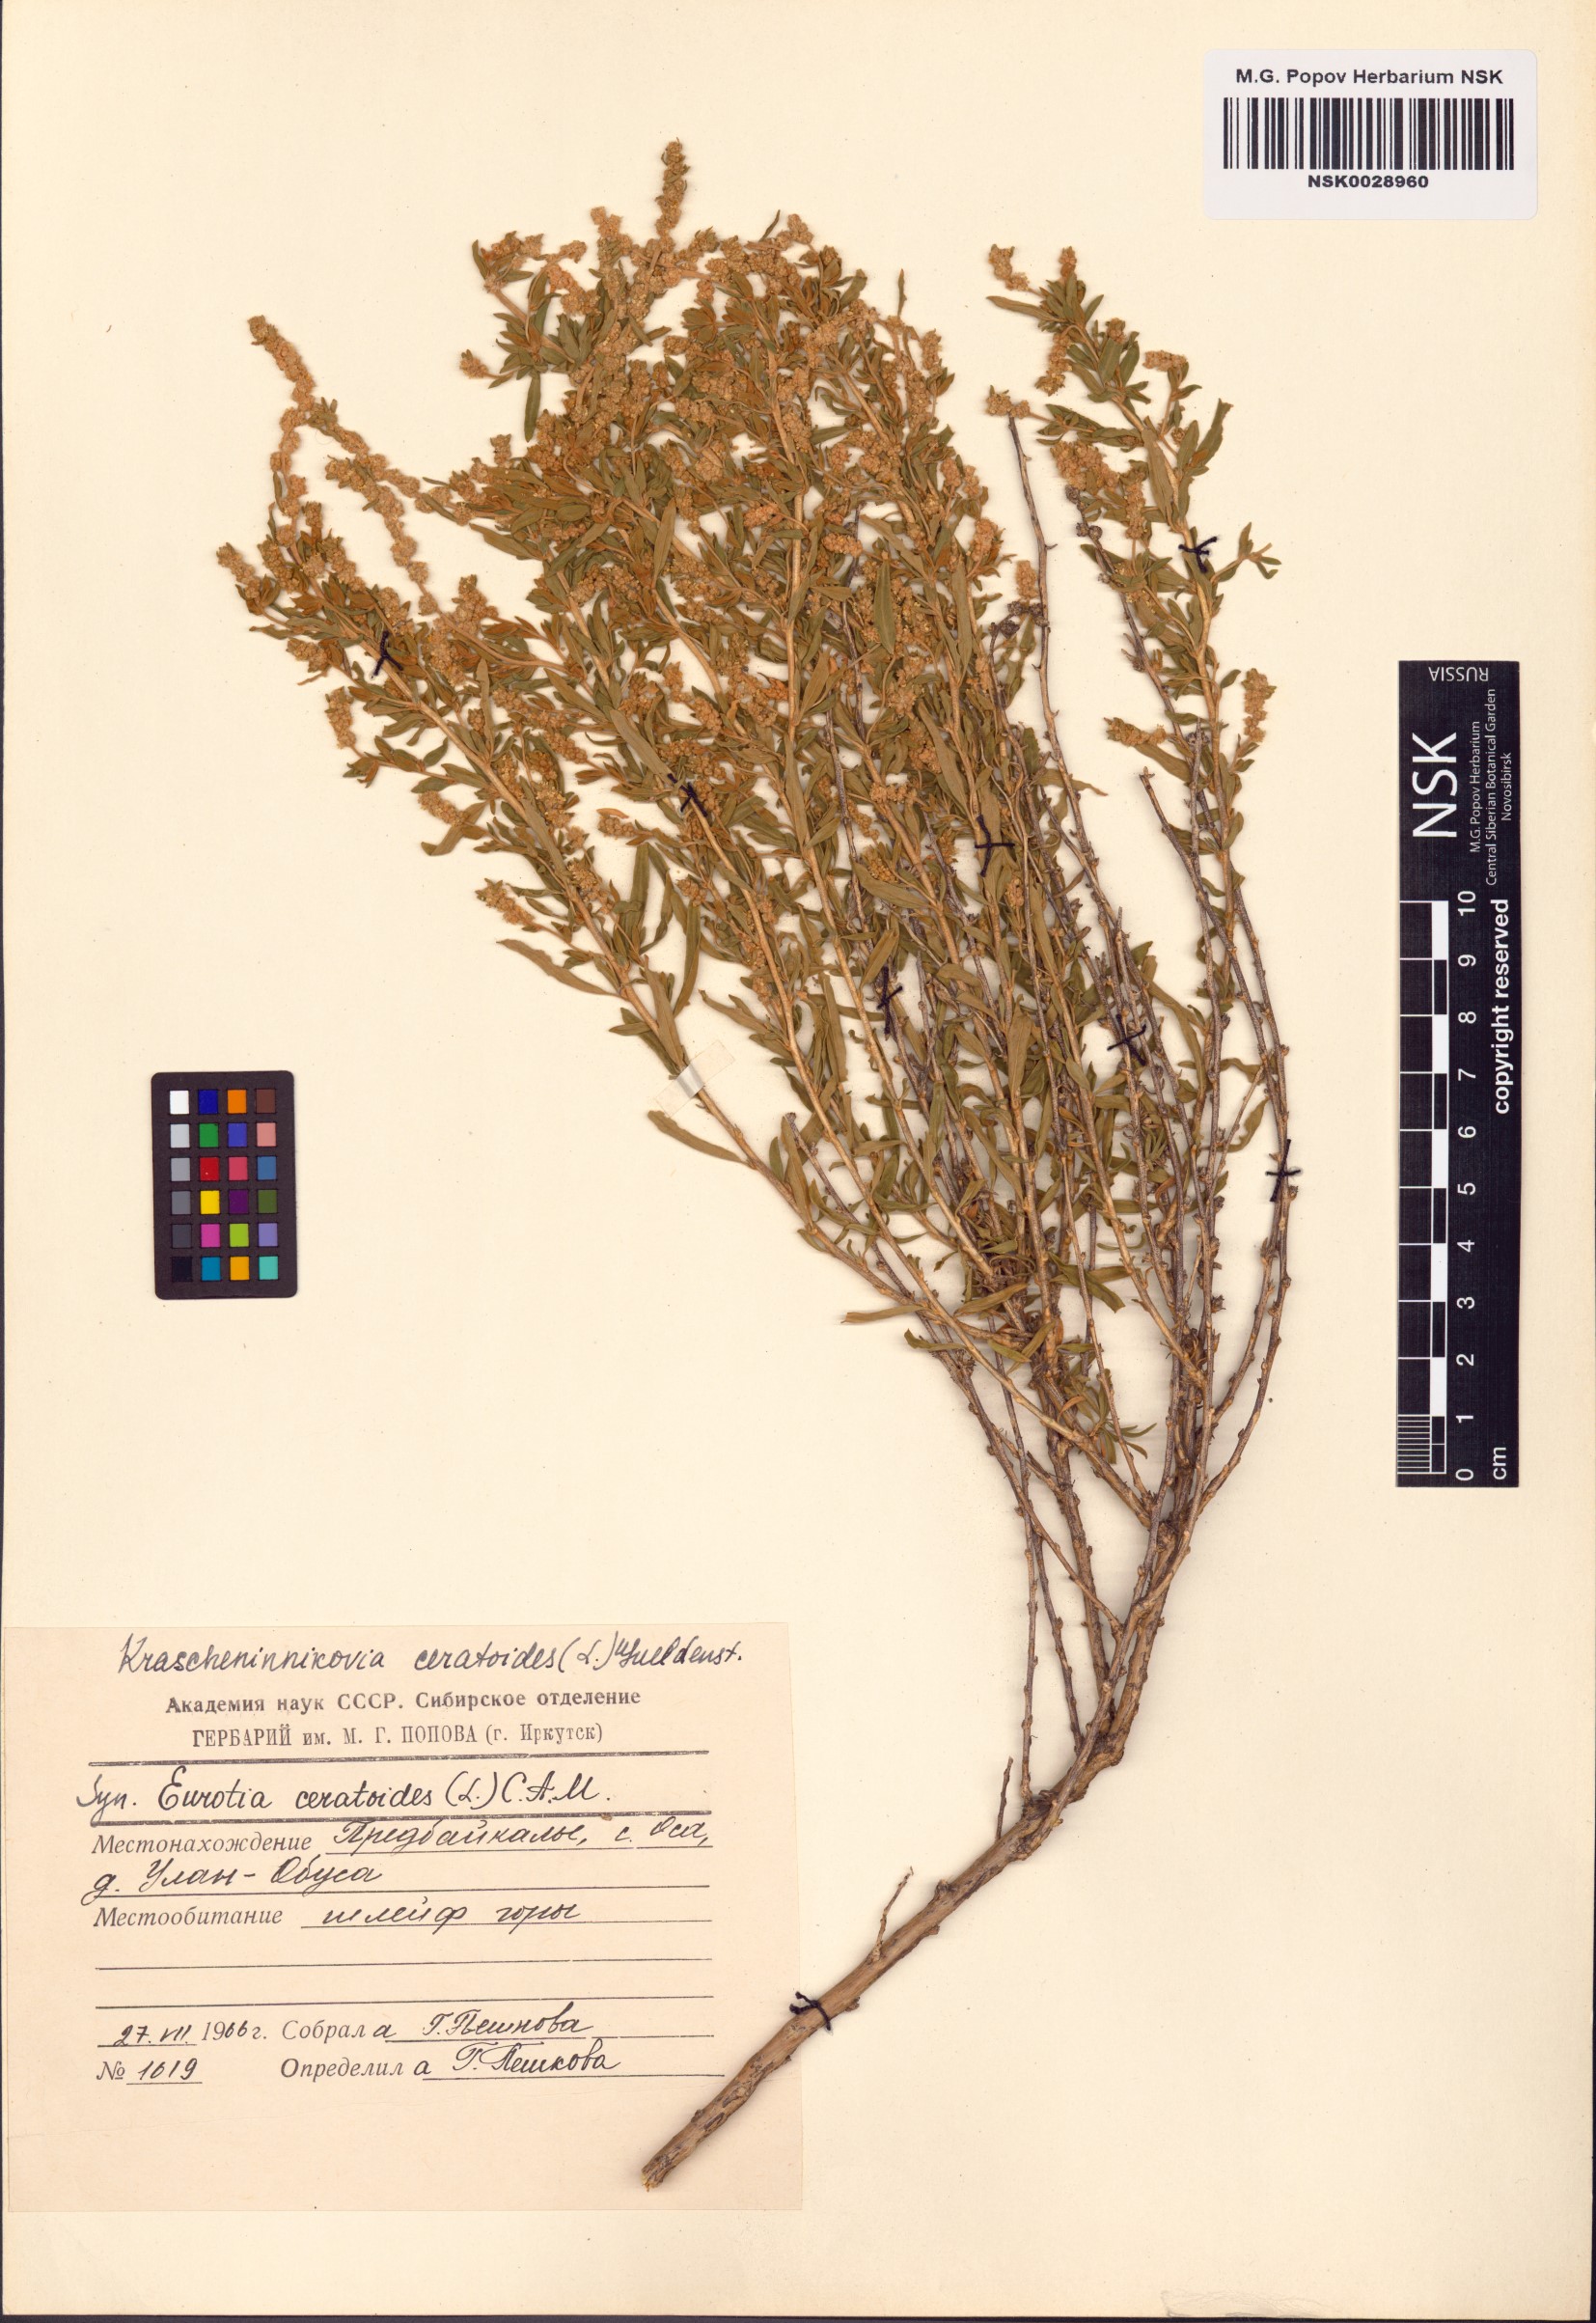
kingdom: Plantae
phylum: Tracheophyta
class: Magnoliopsida
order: Caryophyllales
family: Amaranthaceae
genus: Krascheninnikovia
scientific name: Krascheninnikovia ceratoides
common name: Pamirian winterfat
